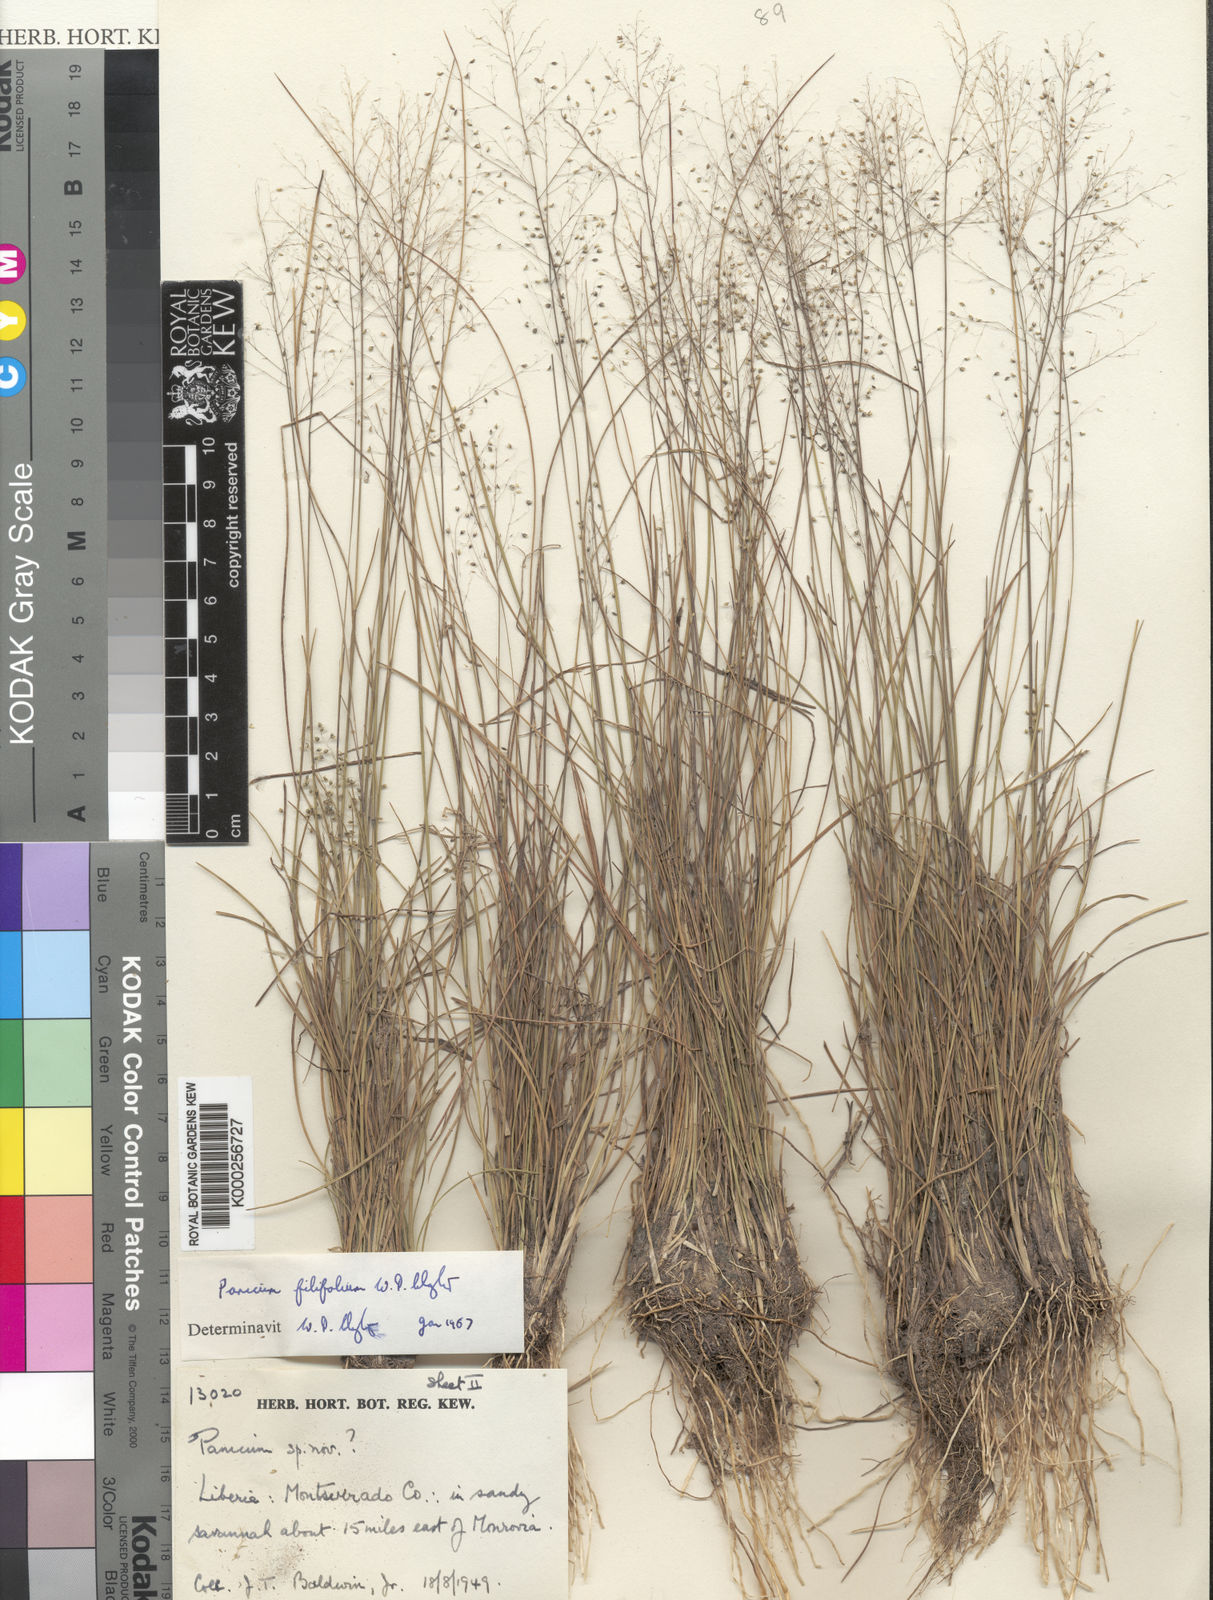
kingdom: Plantae
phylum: Tracheophyta
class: Liliopsida
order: Poales
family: Poaceae
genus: Trichanthecium
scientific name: Trichanthecium filifolium
